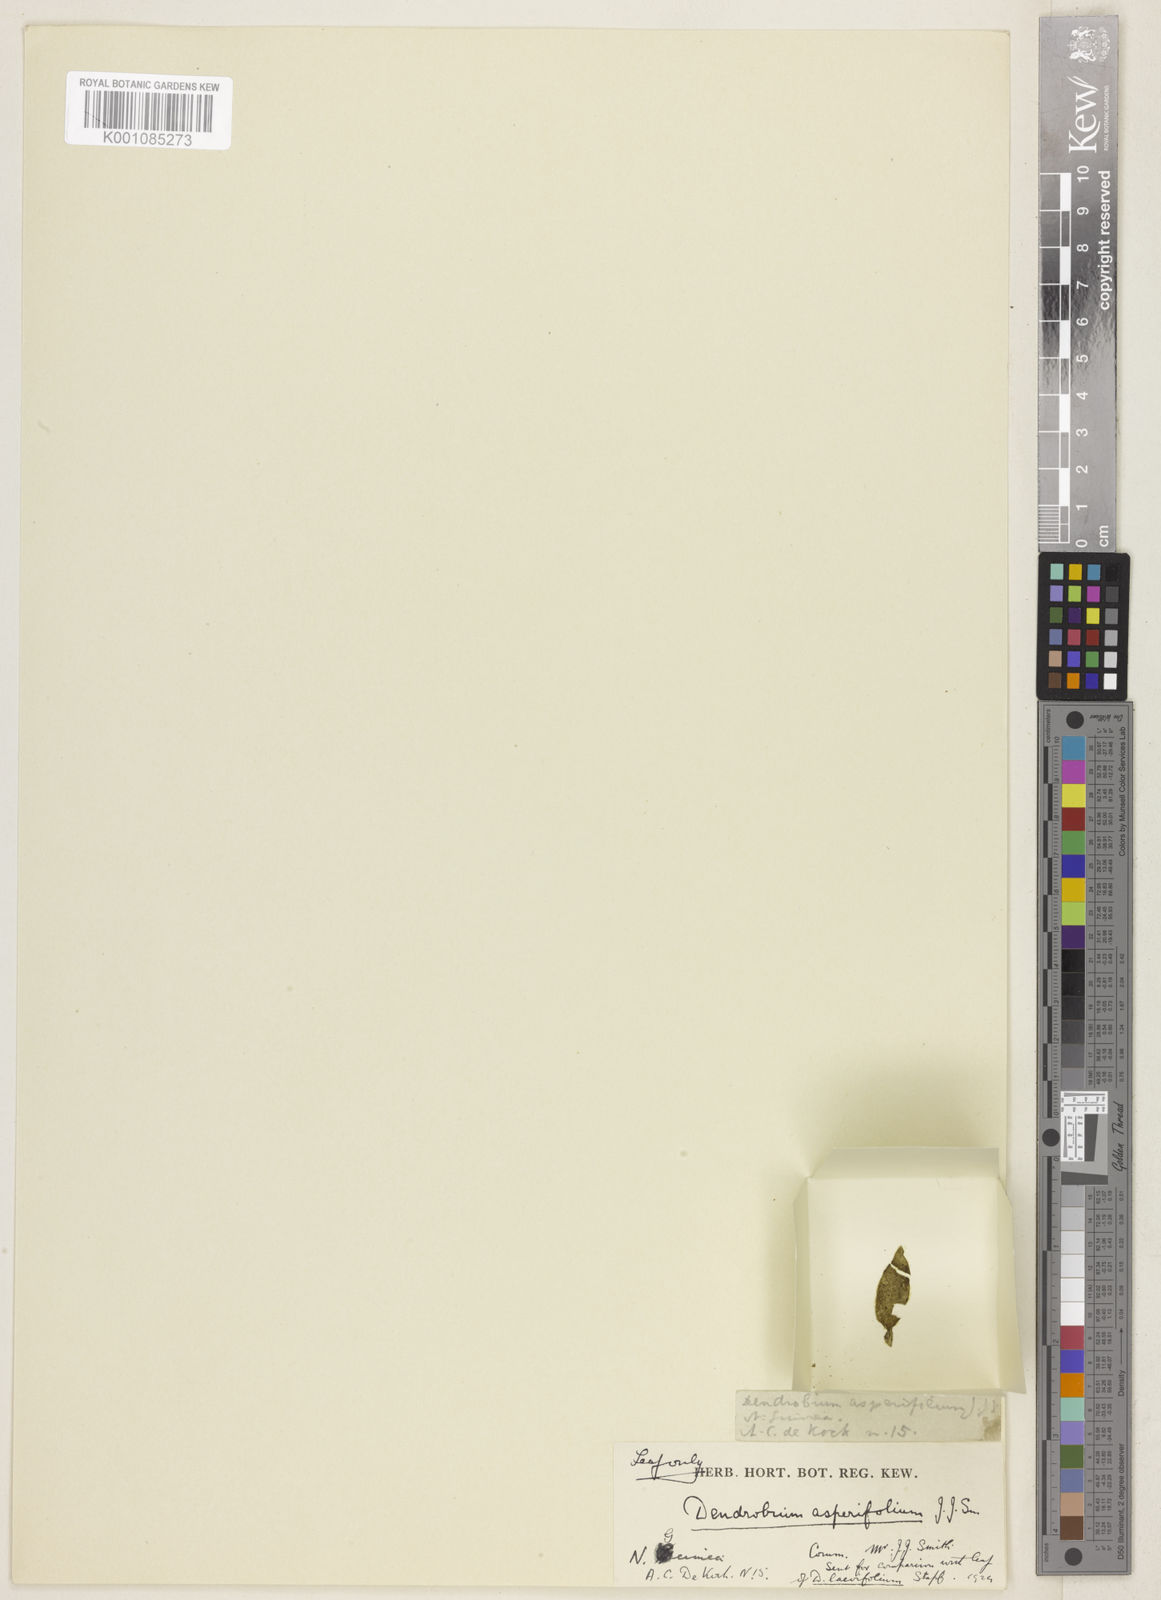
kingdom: Plantae
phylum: Tracheophyta
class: Liliopsida
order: Asparagales
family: Orchidaceae
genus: Dendrobium
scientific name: Dendrobium cuthbertsonii
